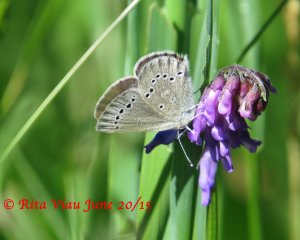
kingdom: Animalia
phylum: Arthropoda
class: Insecta
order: Lepidoptera
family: Lycaenidae
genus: Glaucopsyche
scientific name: Glaucopsyche lygdamus
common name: Silvery Blue
